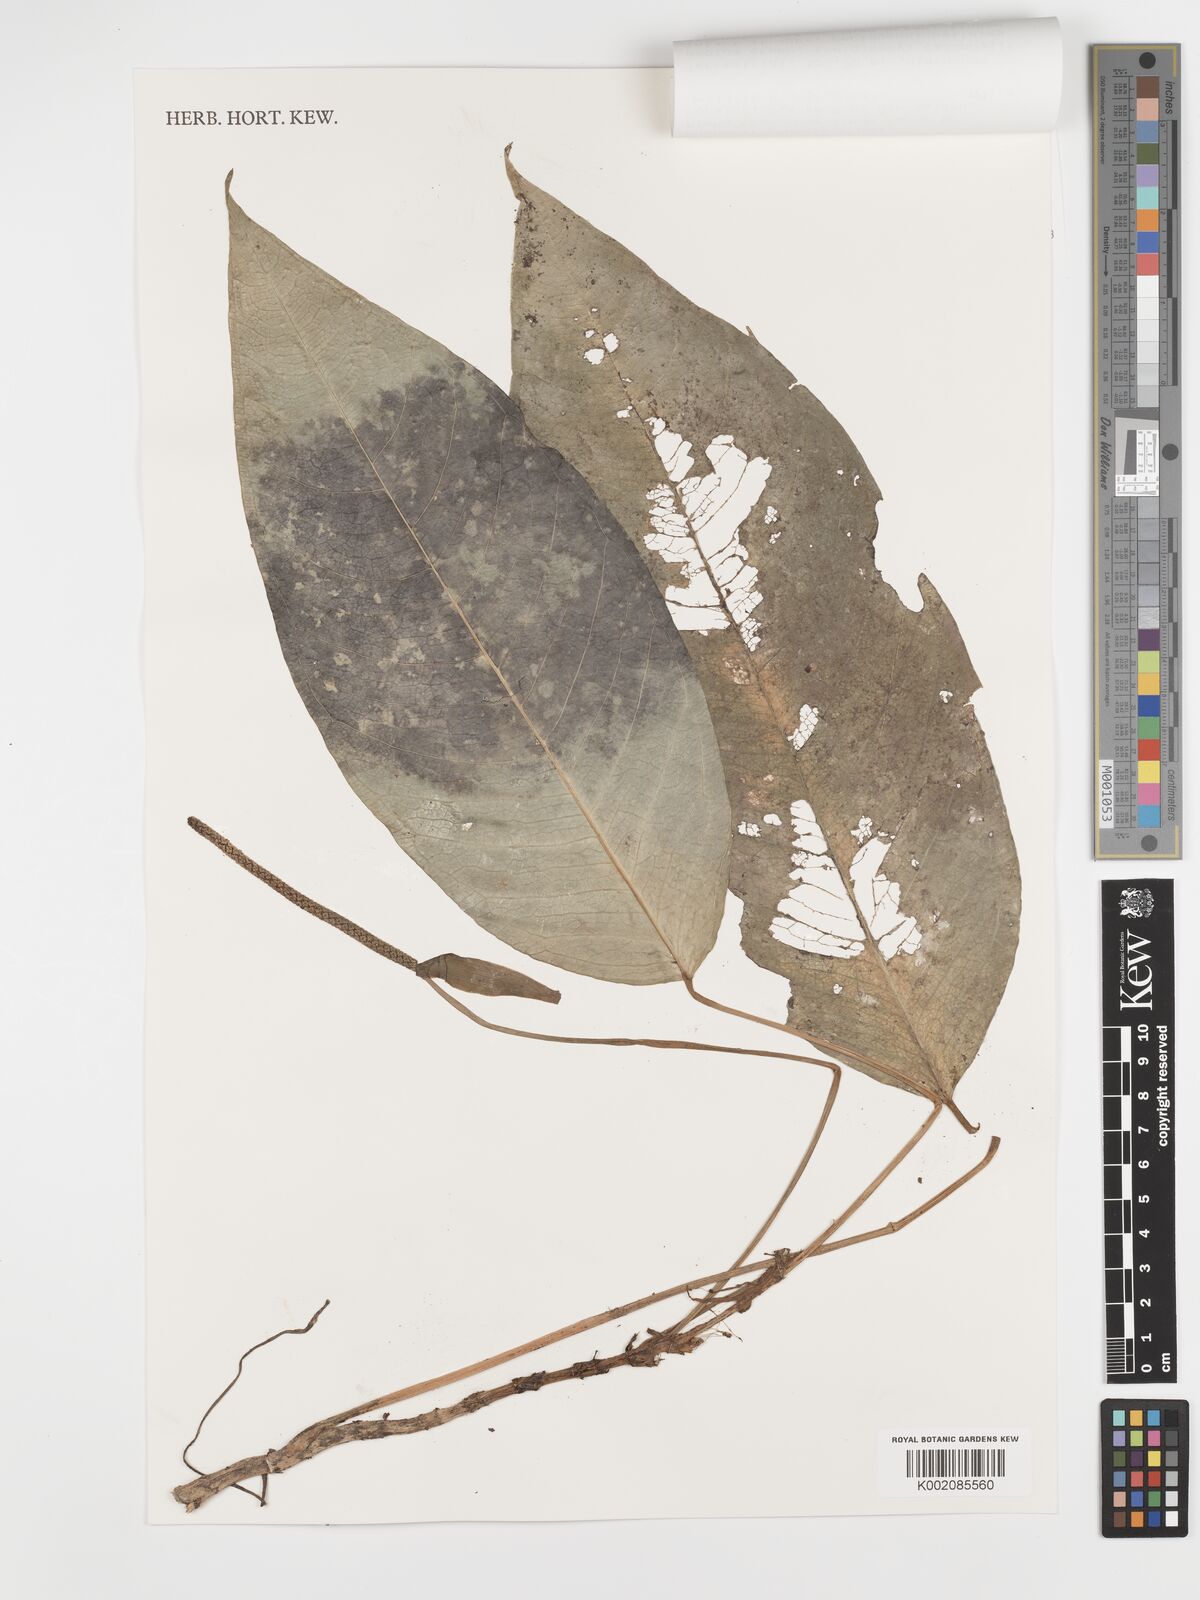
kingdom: Plantae
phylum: Tracheophyta
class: Liliopsida
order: Alismatales
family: Araceae
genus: Anthurium
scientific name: Anthurium amoenum
